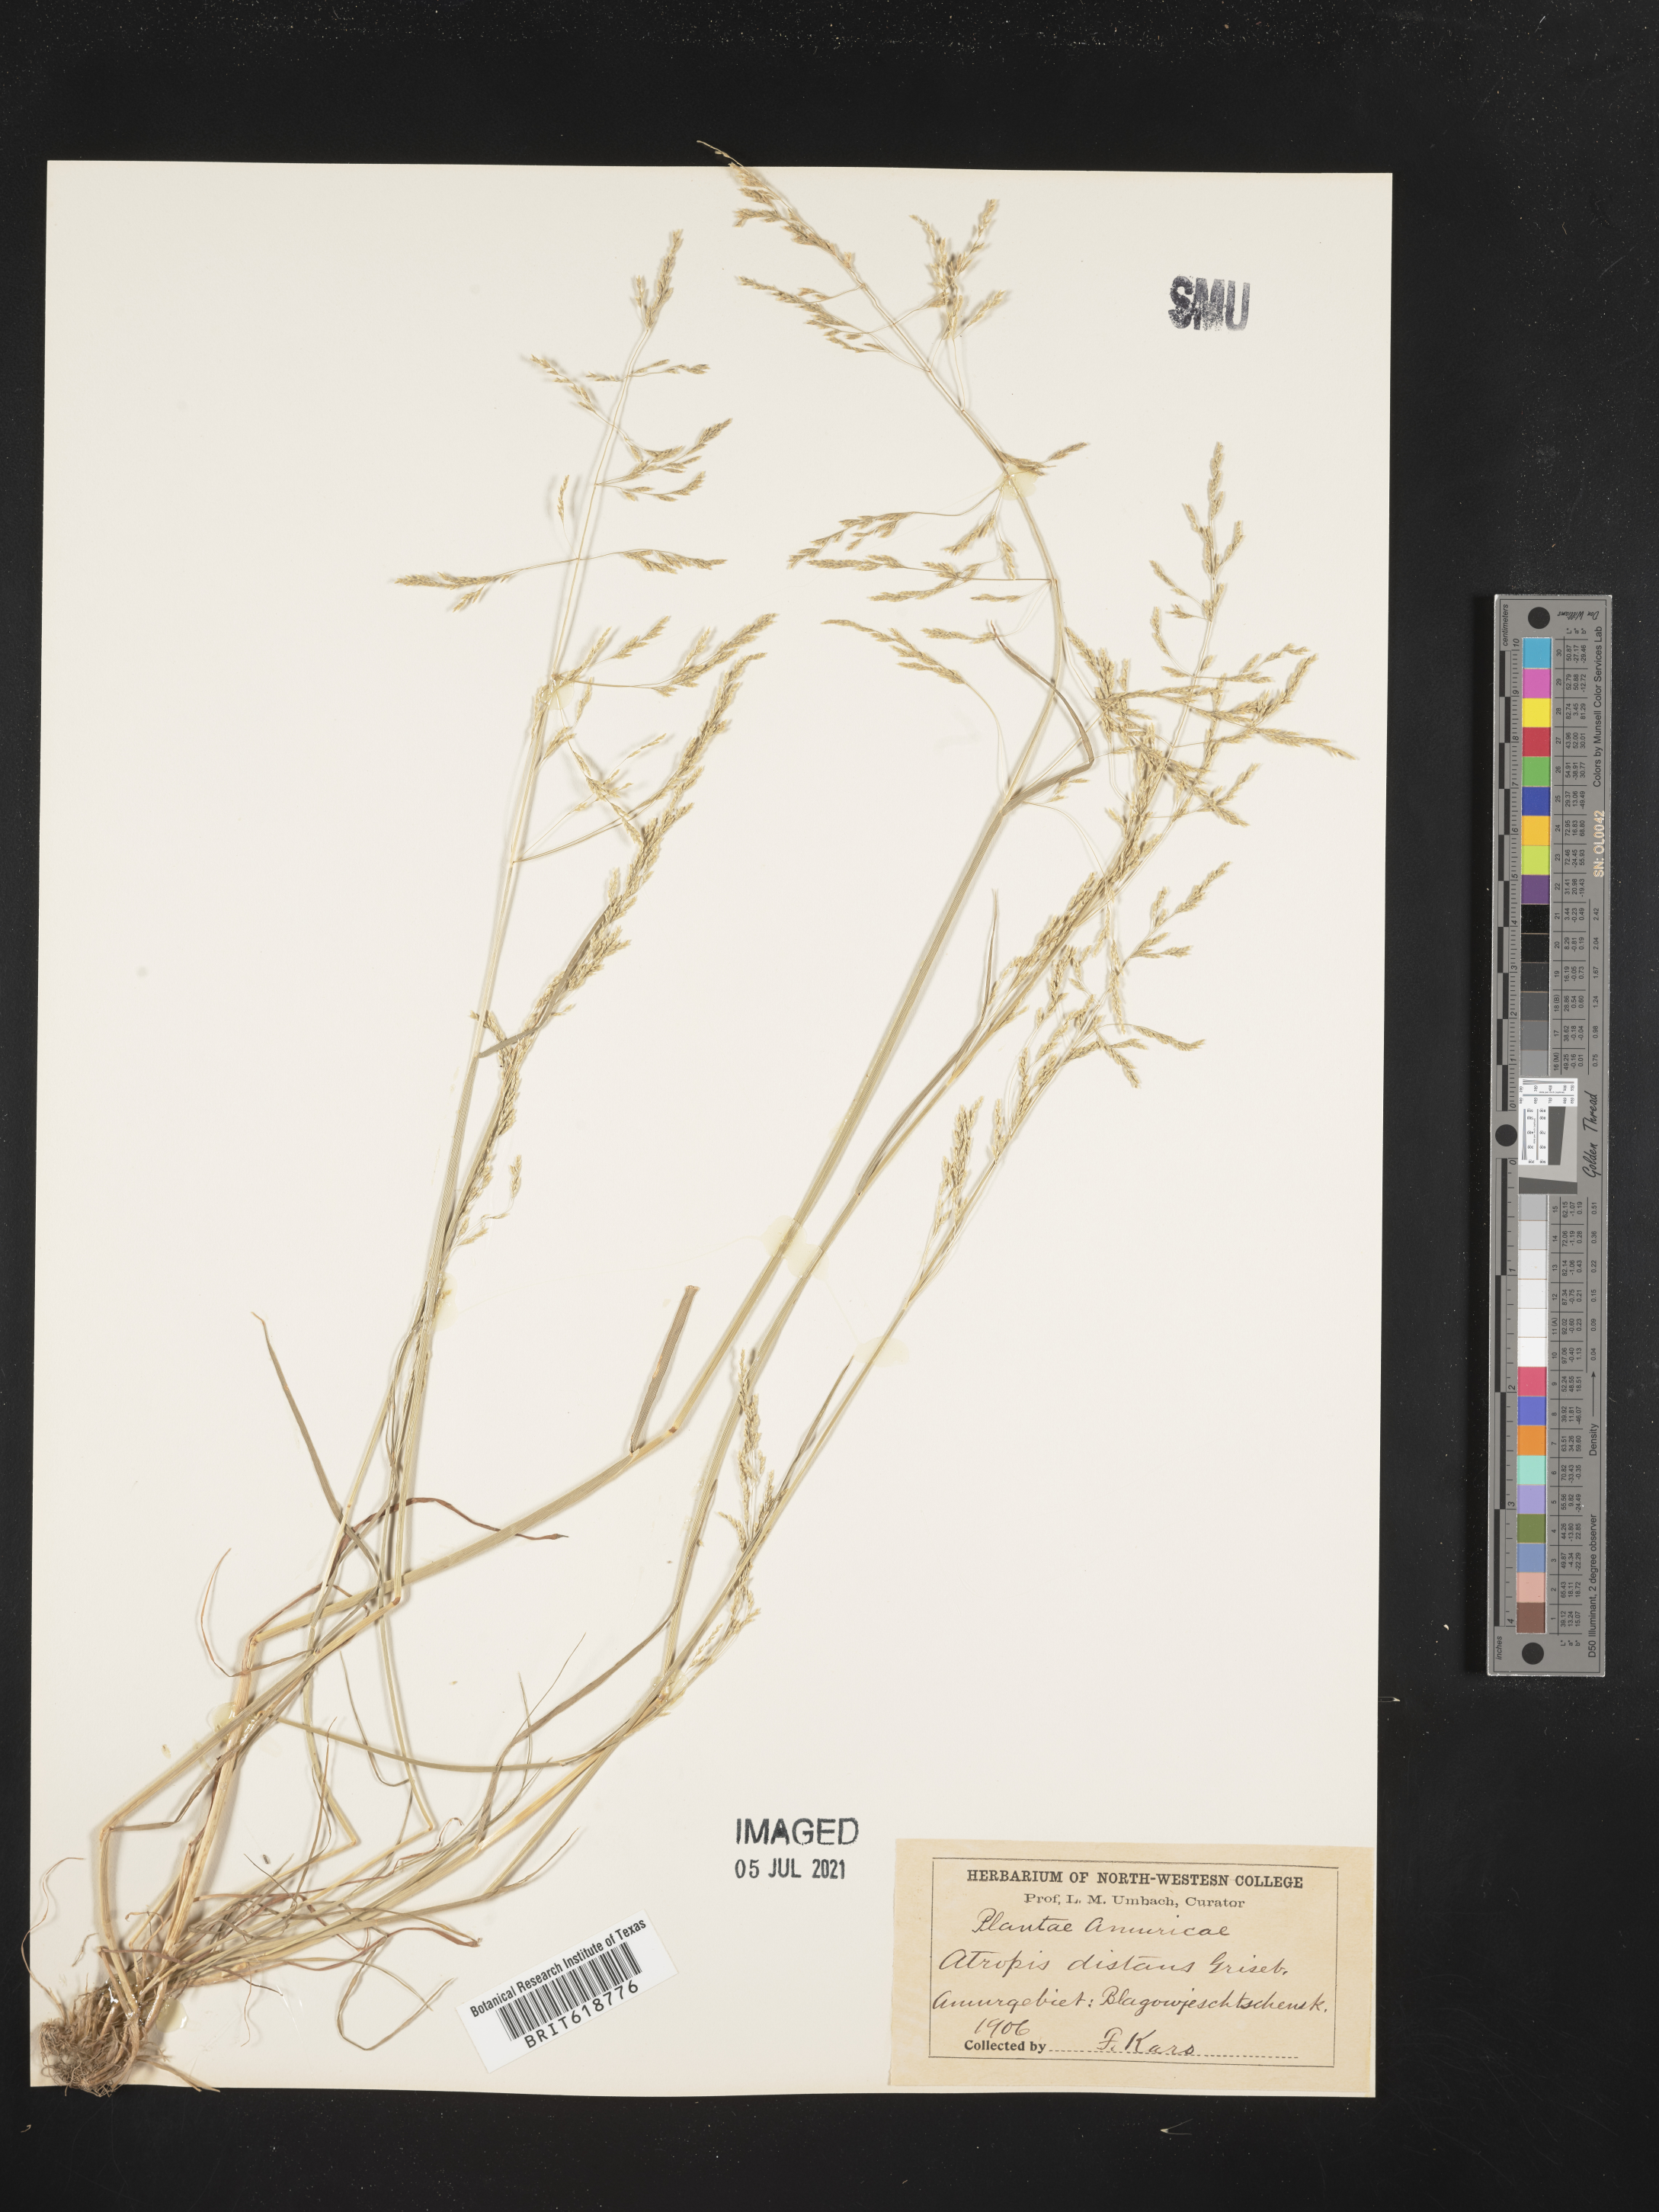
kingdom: Plantae
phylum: Tracheophyta
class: Liliopsida
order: Poales
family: Poaceae
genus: Puccinellia
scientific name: Puccinellia distans
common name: Weeping alkaligrass
